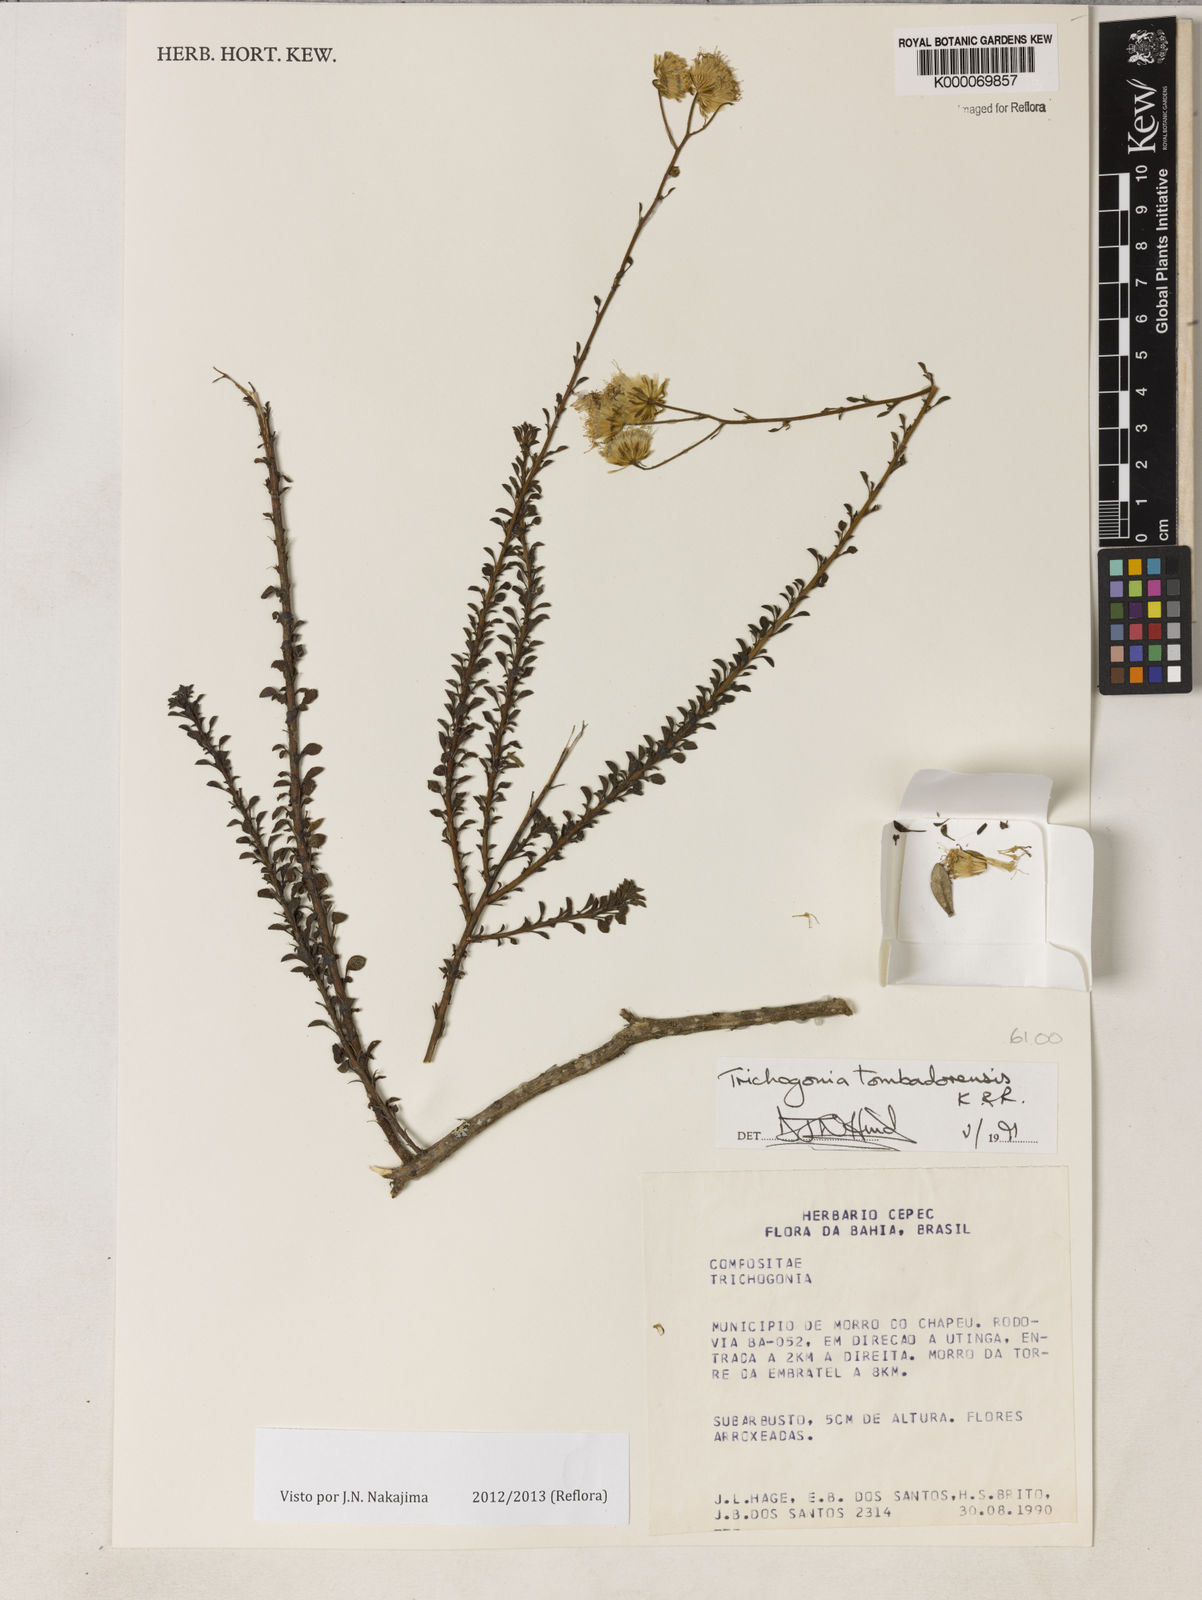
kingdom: Plantae
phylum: Tracheophyta
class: Magnoliopsida
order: Asterales
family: Asteraceae
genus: Trichogonia
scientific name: Trichogonia tombadorensis
